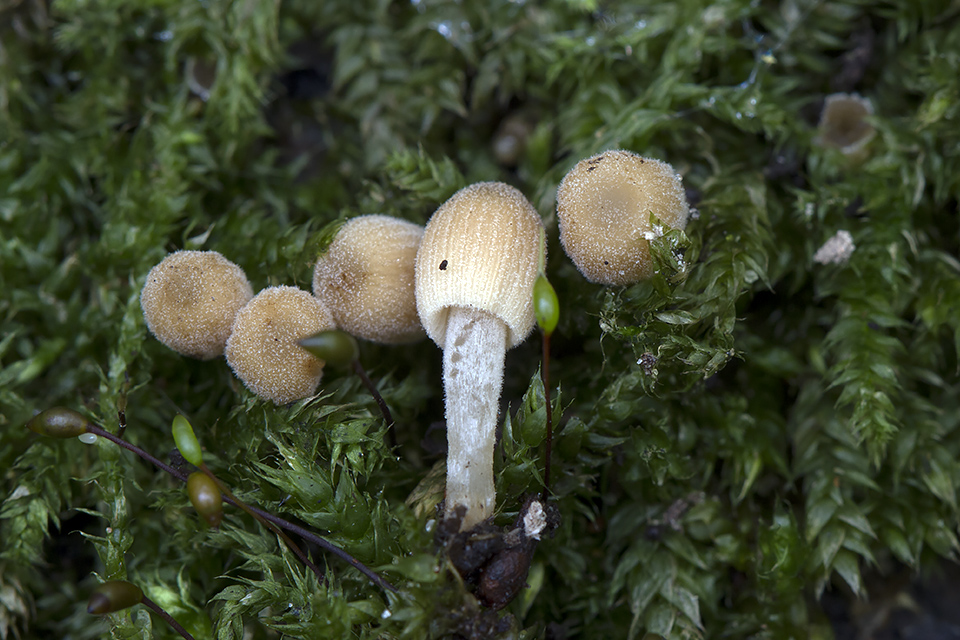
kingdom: Fungi
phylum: Basidiomycota
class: Agaricomycetes
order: Agaricales
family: Psathyrellaceae
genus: Coprinellus
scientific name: Coprinellus disseminatus
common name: bredsået blækhat
